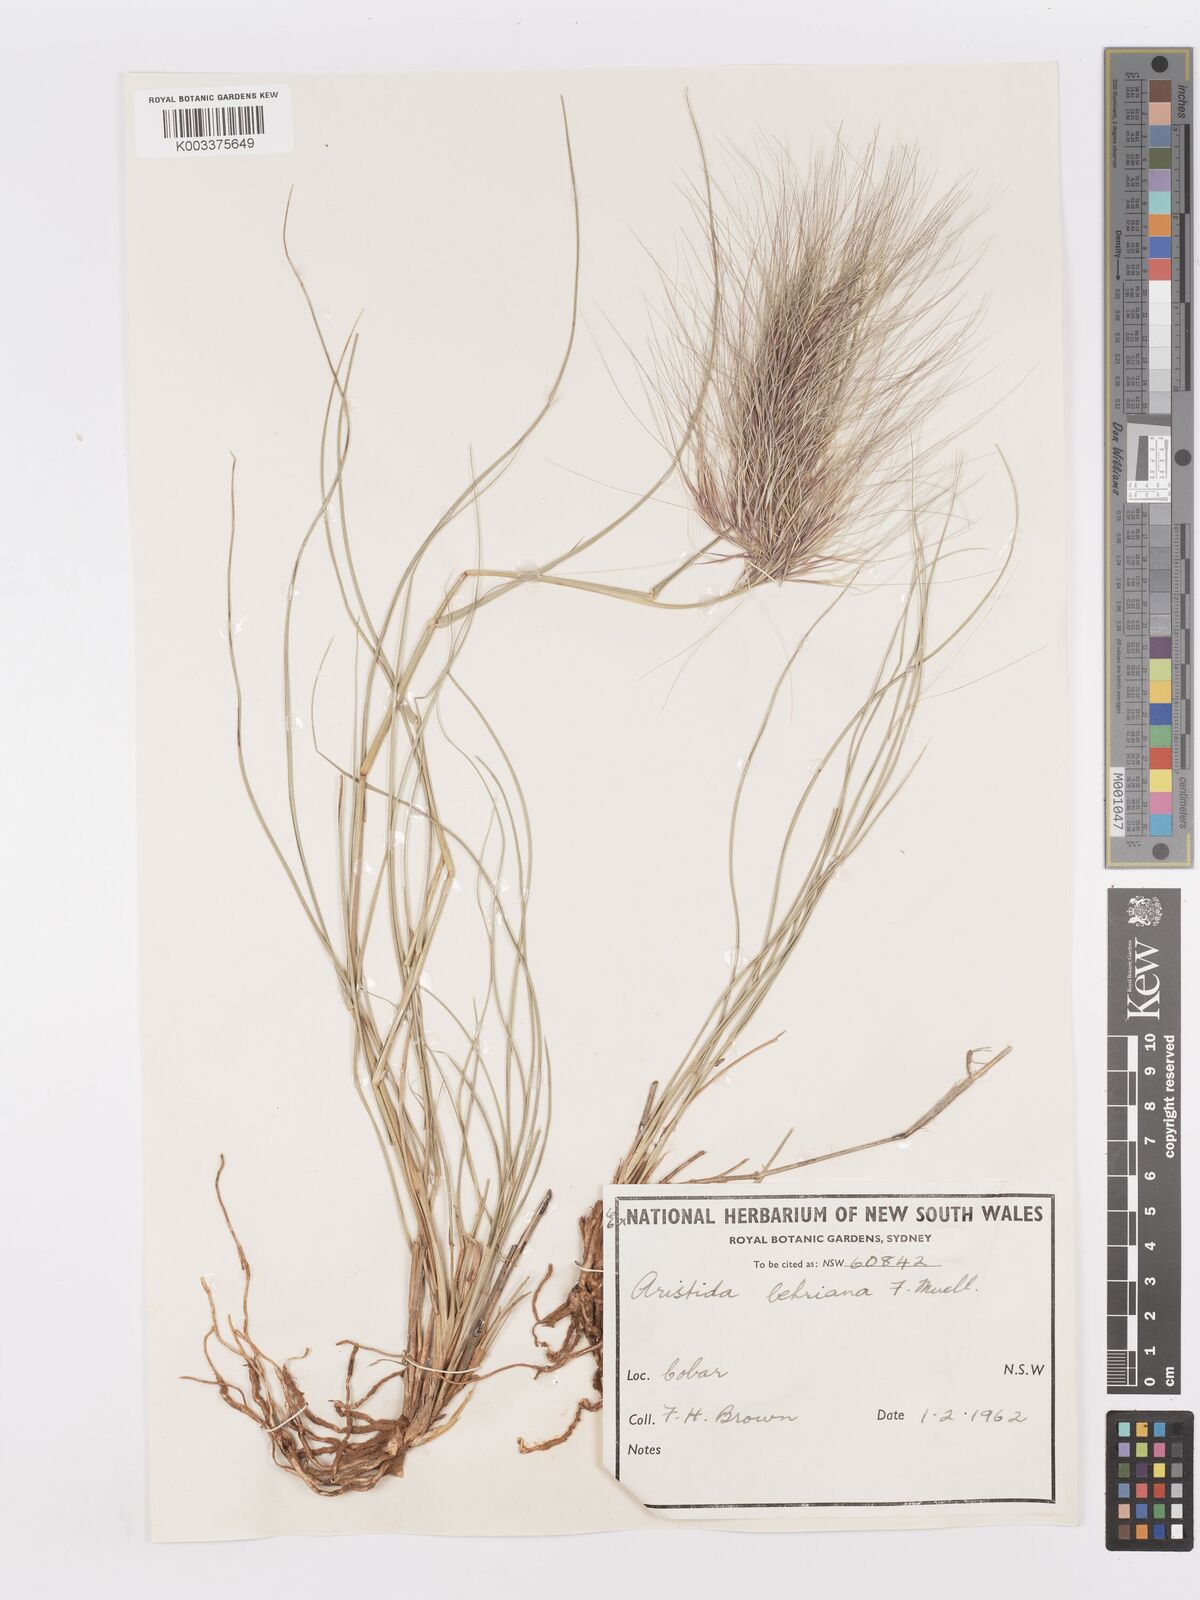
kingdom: Plantae
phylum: Tracheophyta
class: Liliopsida
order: Poales
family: Poaceae
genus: Aristida
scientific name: Aristida behriana
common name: Long-awn wire grass
